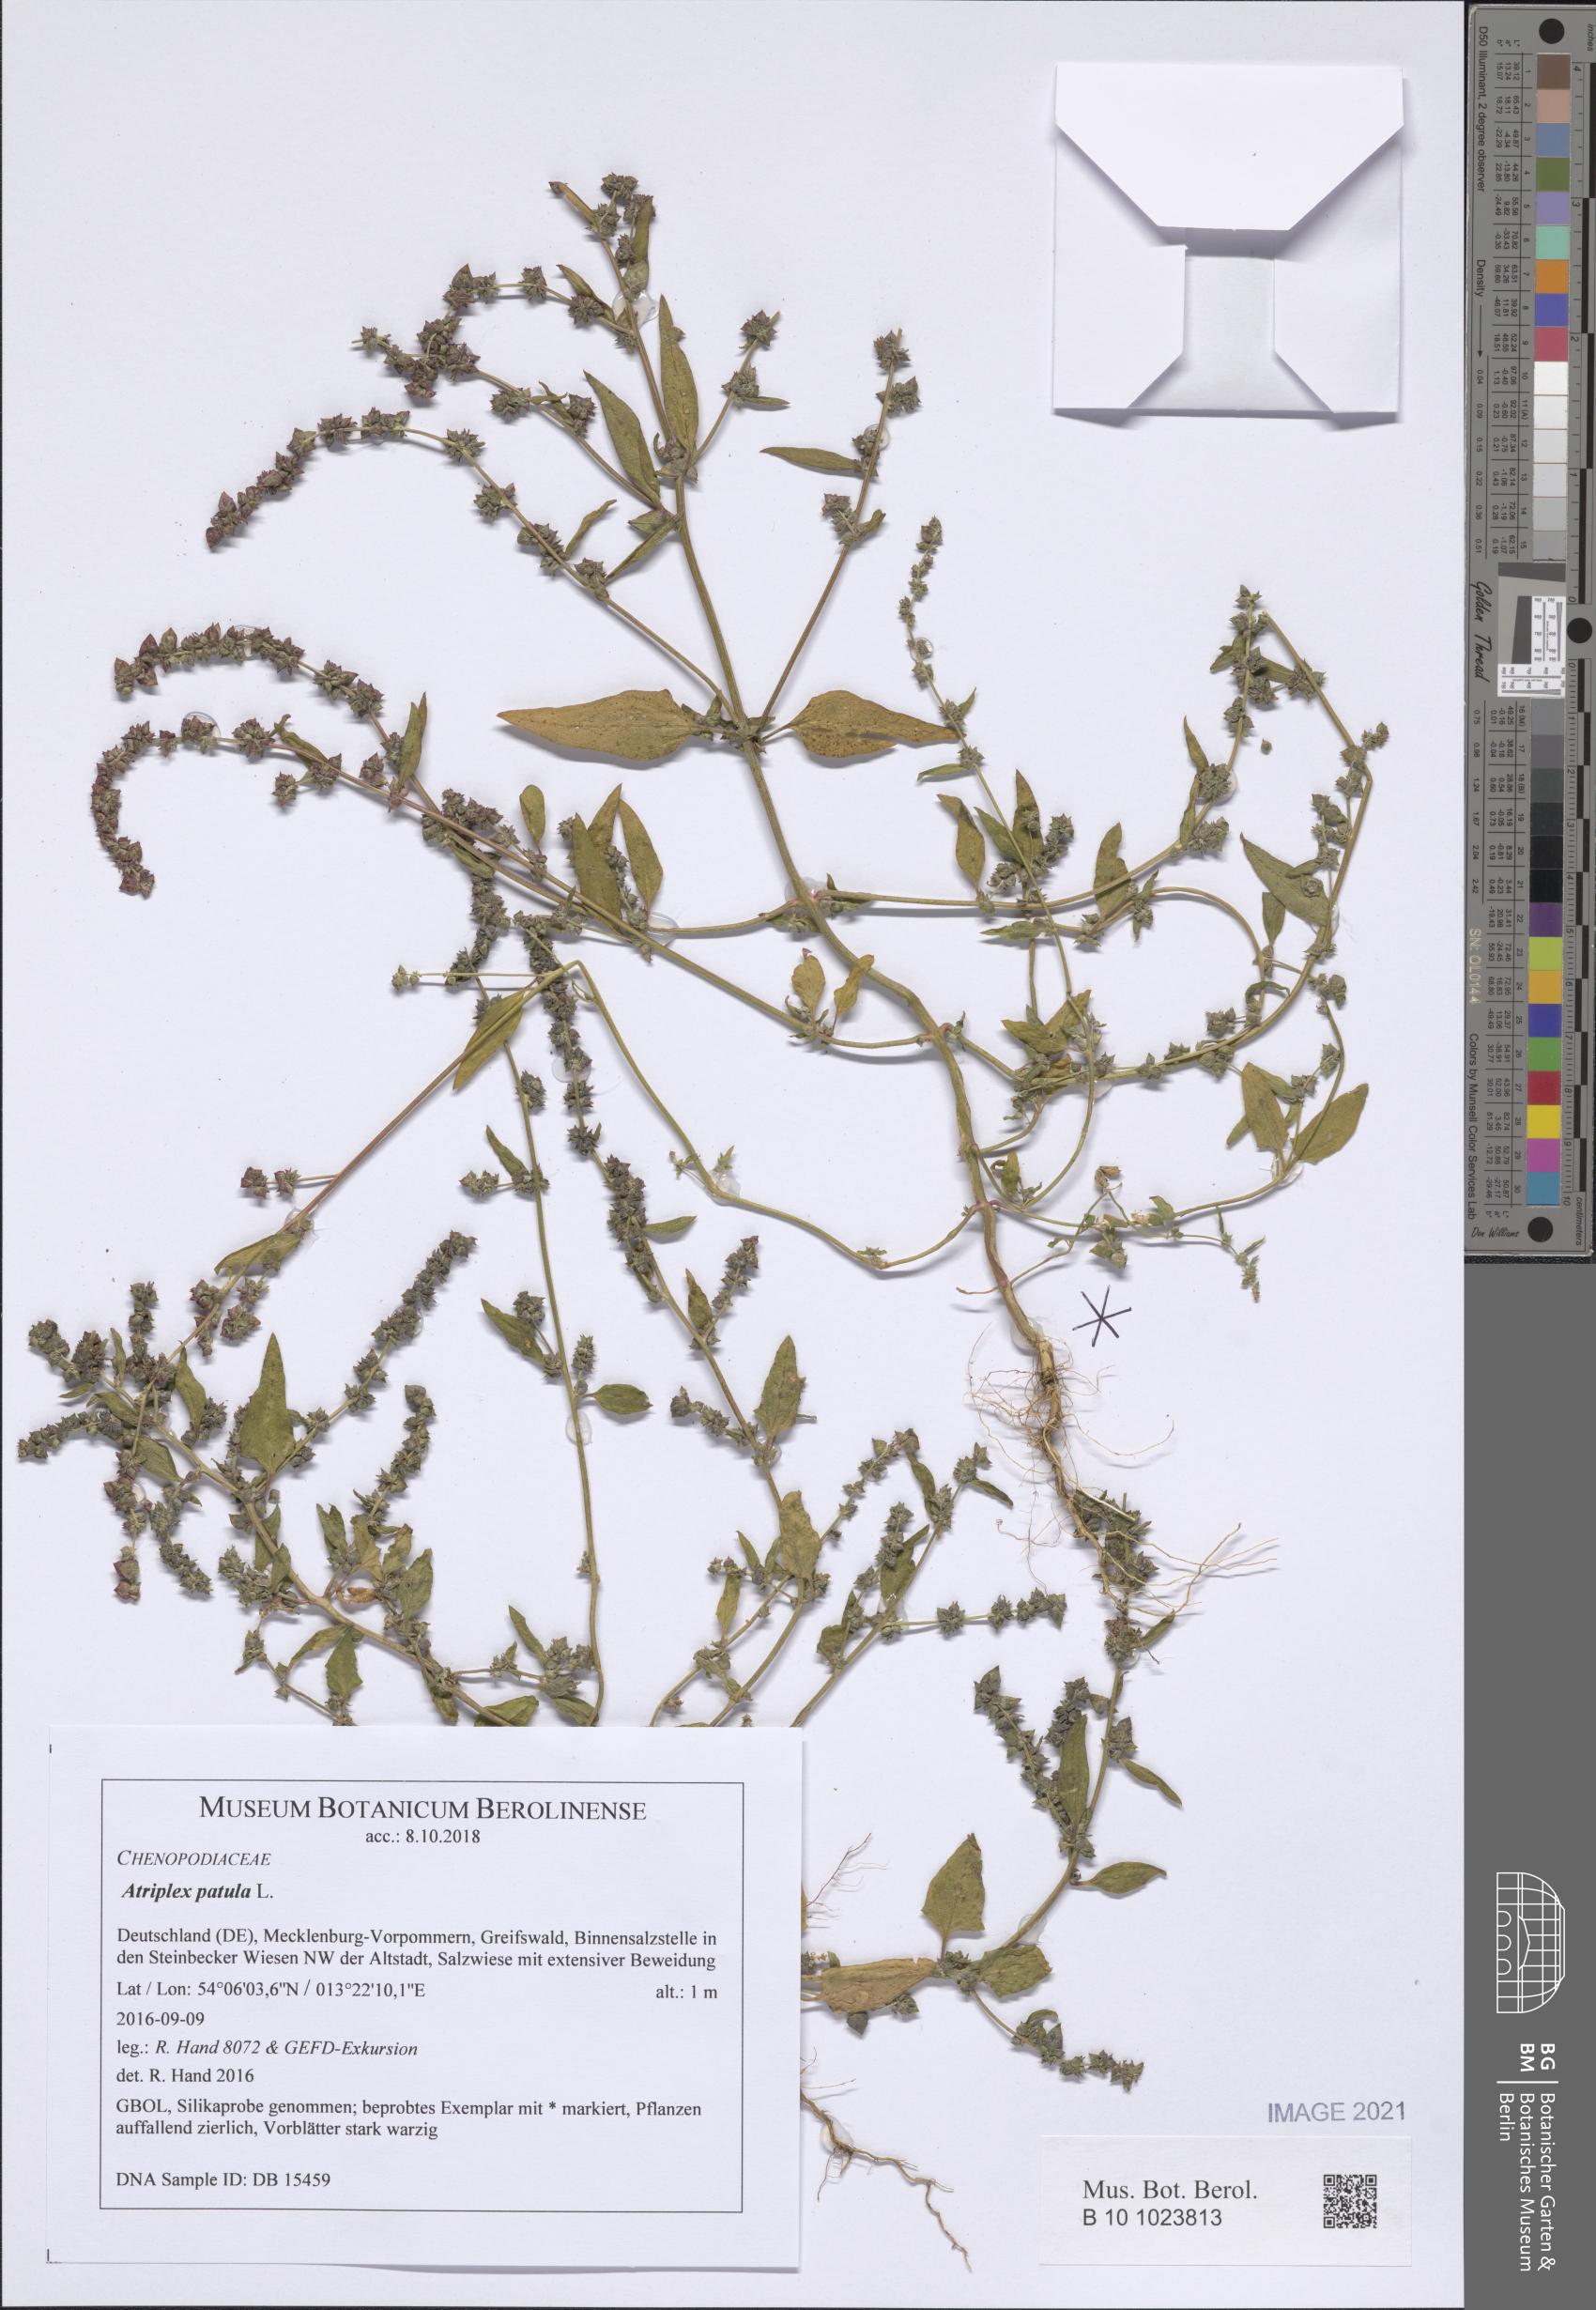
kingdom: Plantae
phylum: Tracheophyta
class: Magnoliopsida
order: Caryophyllales
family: Amaranthaceae
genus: Atriplex
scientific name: Atriplex patula
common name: Common orache
